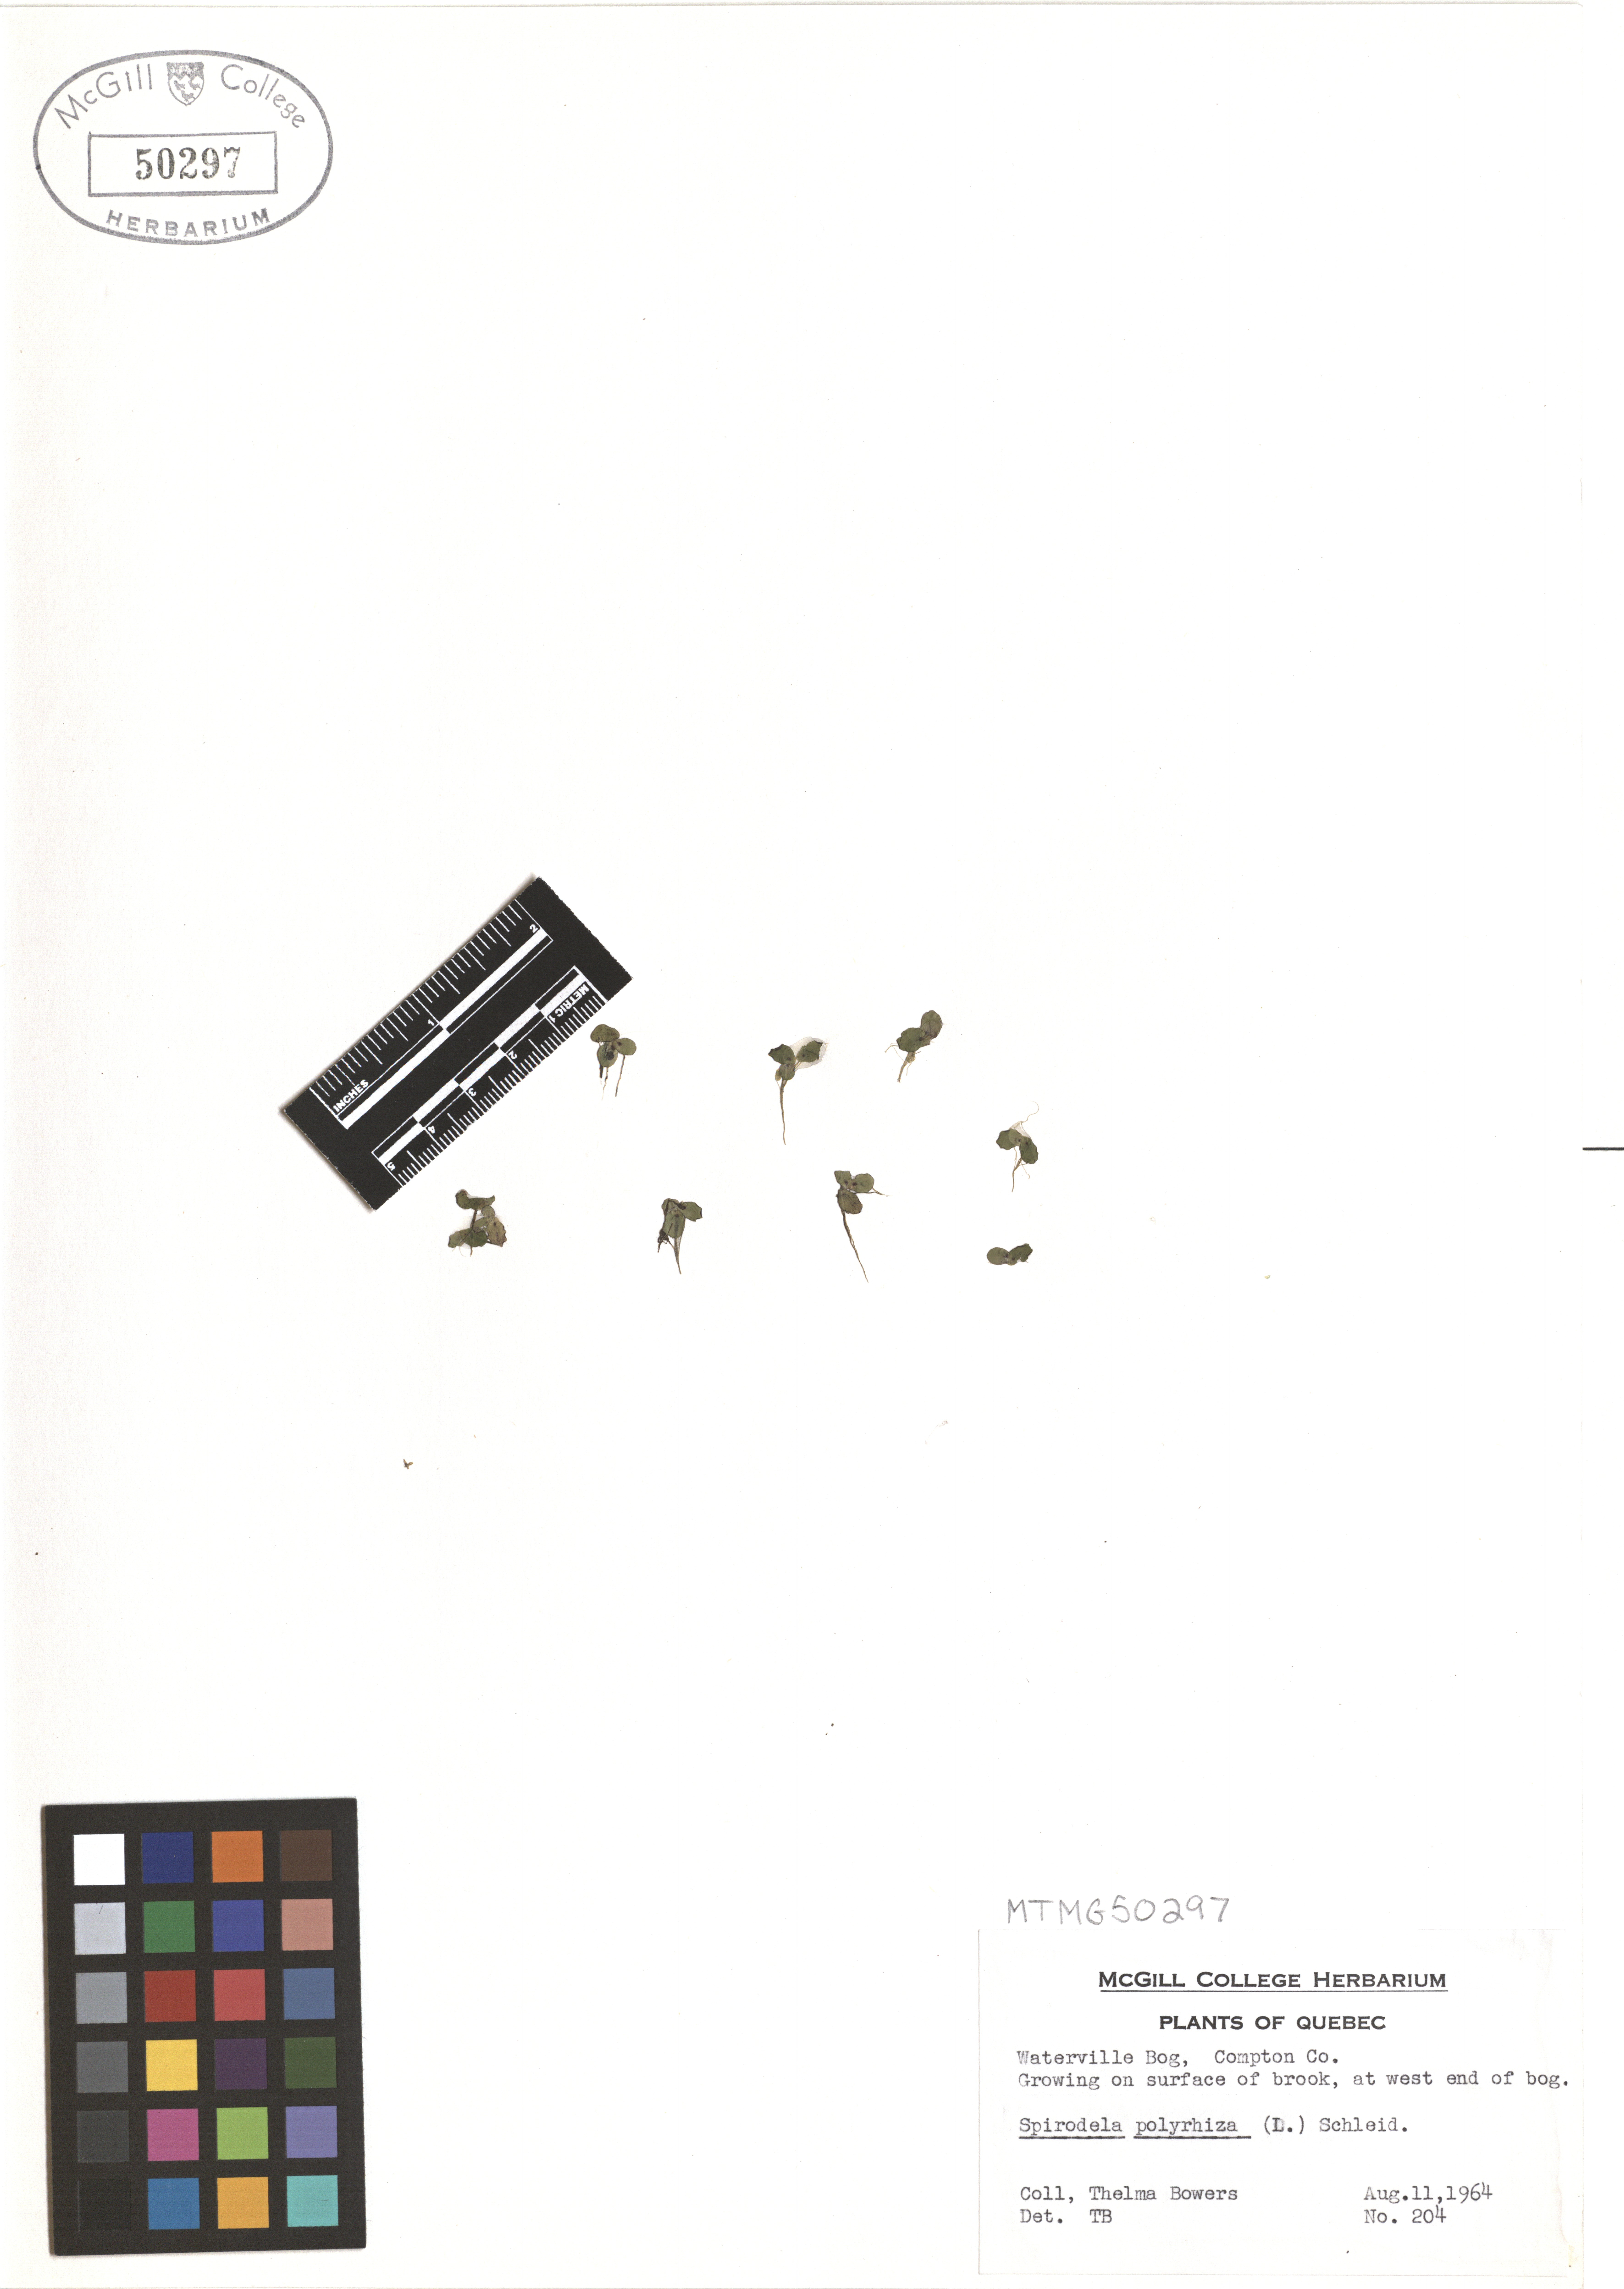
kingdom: Plantae
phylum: Tracheophyta
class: Liliopsida
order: Alismatales
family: Araceae
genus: Spirodela
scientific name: Spirodela polyrhiza
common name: Great duckweed
